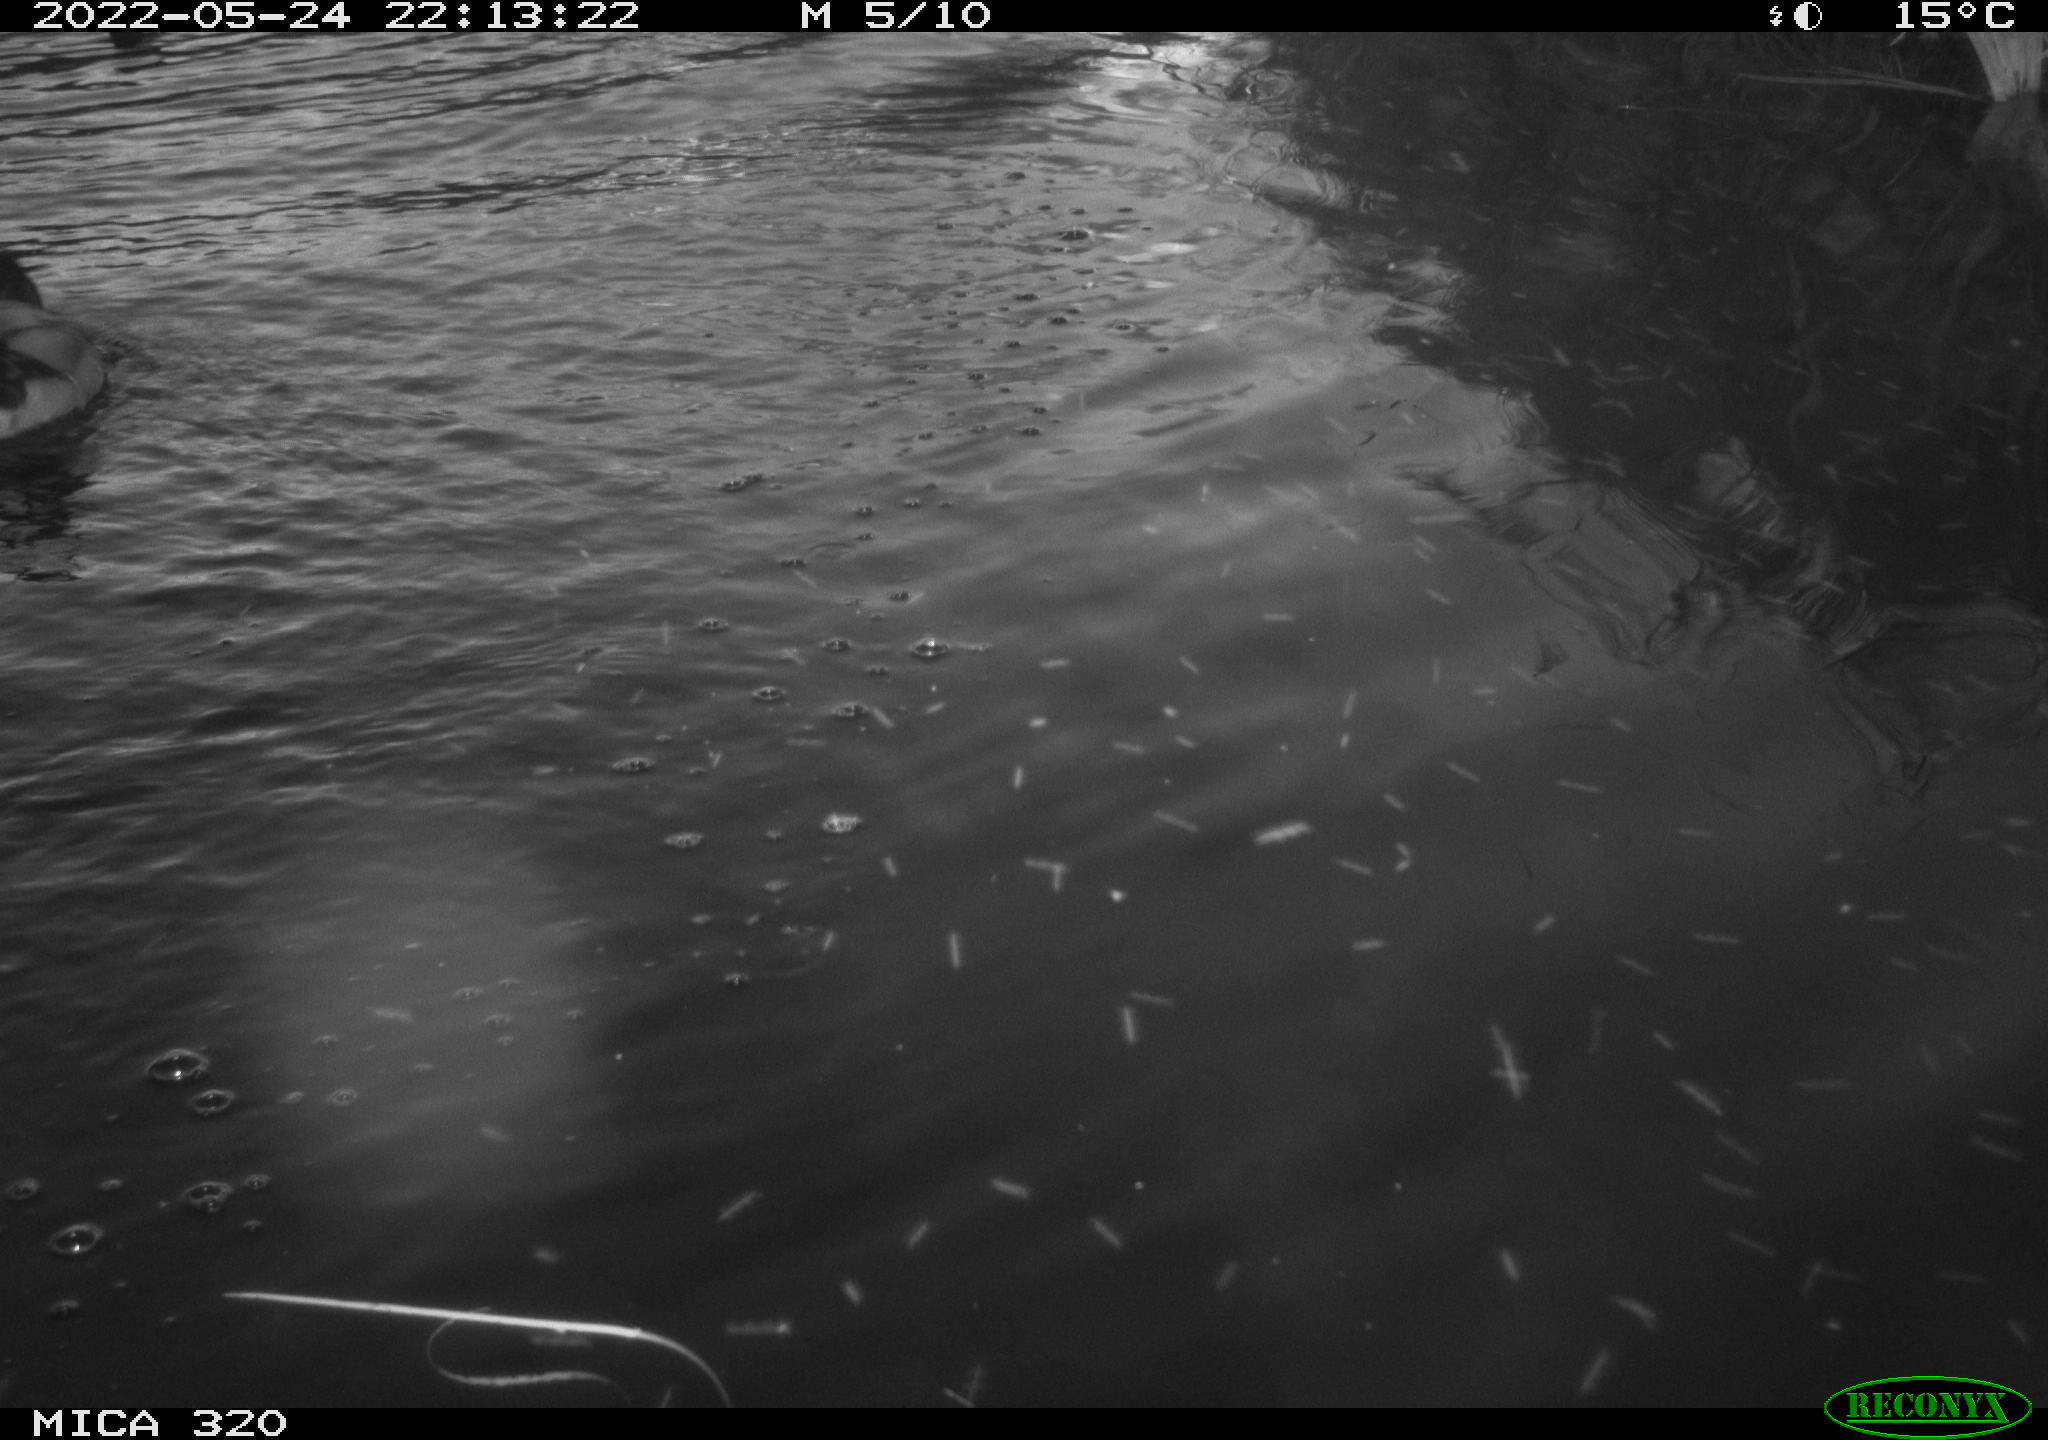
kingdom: Animalia
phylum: Chordata
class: Aves
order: Anseriformes
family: Anatidae
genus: Anas
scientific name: Anas platyrhynchos
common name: Mallard
